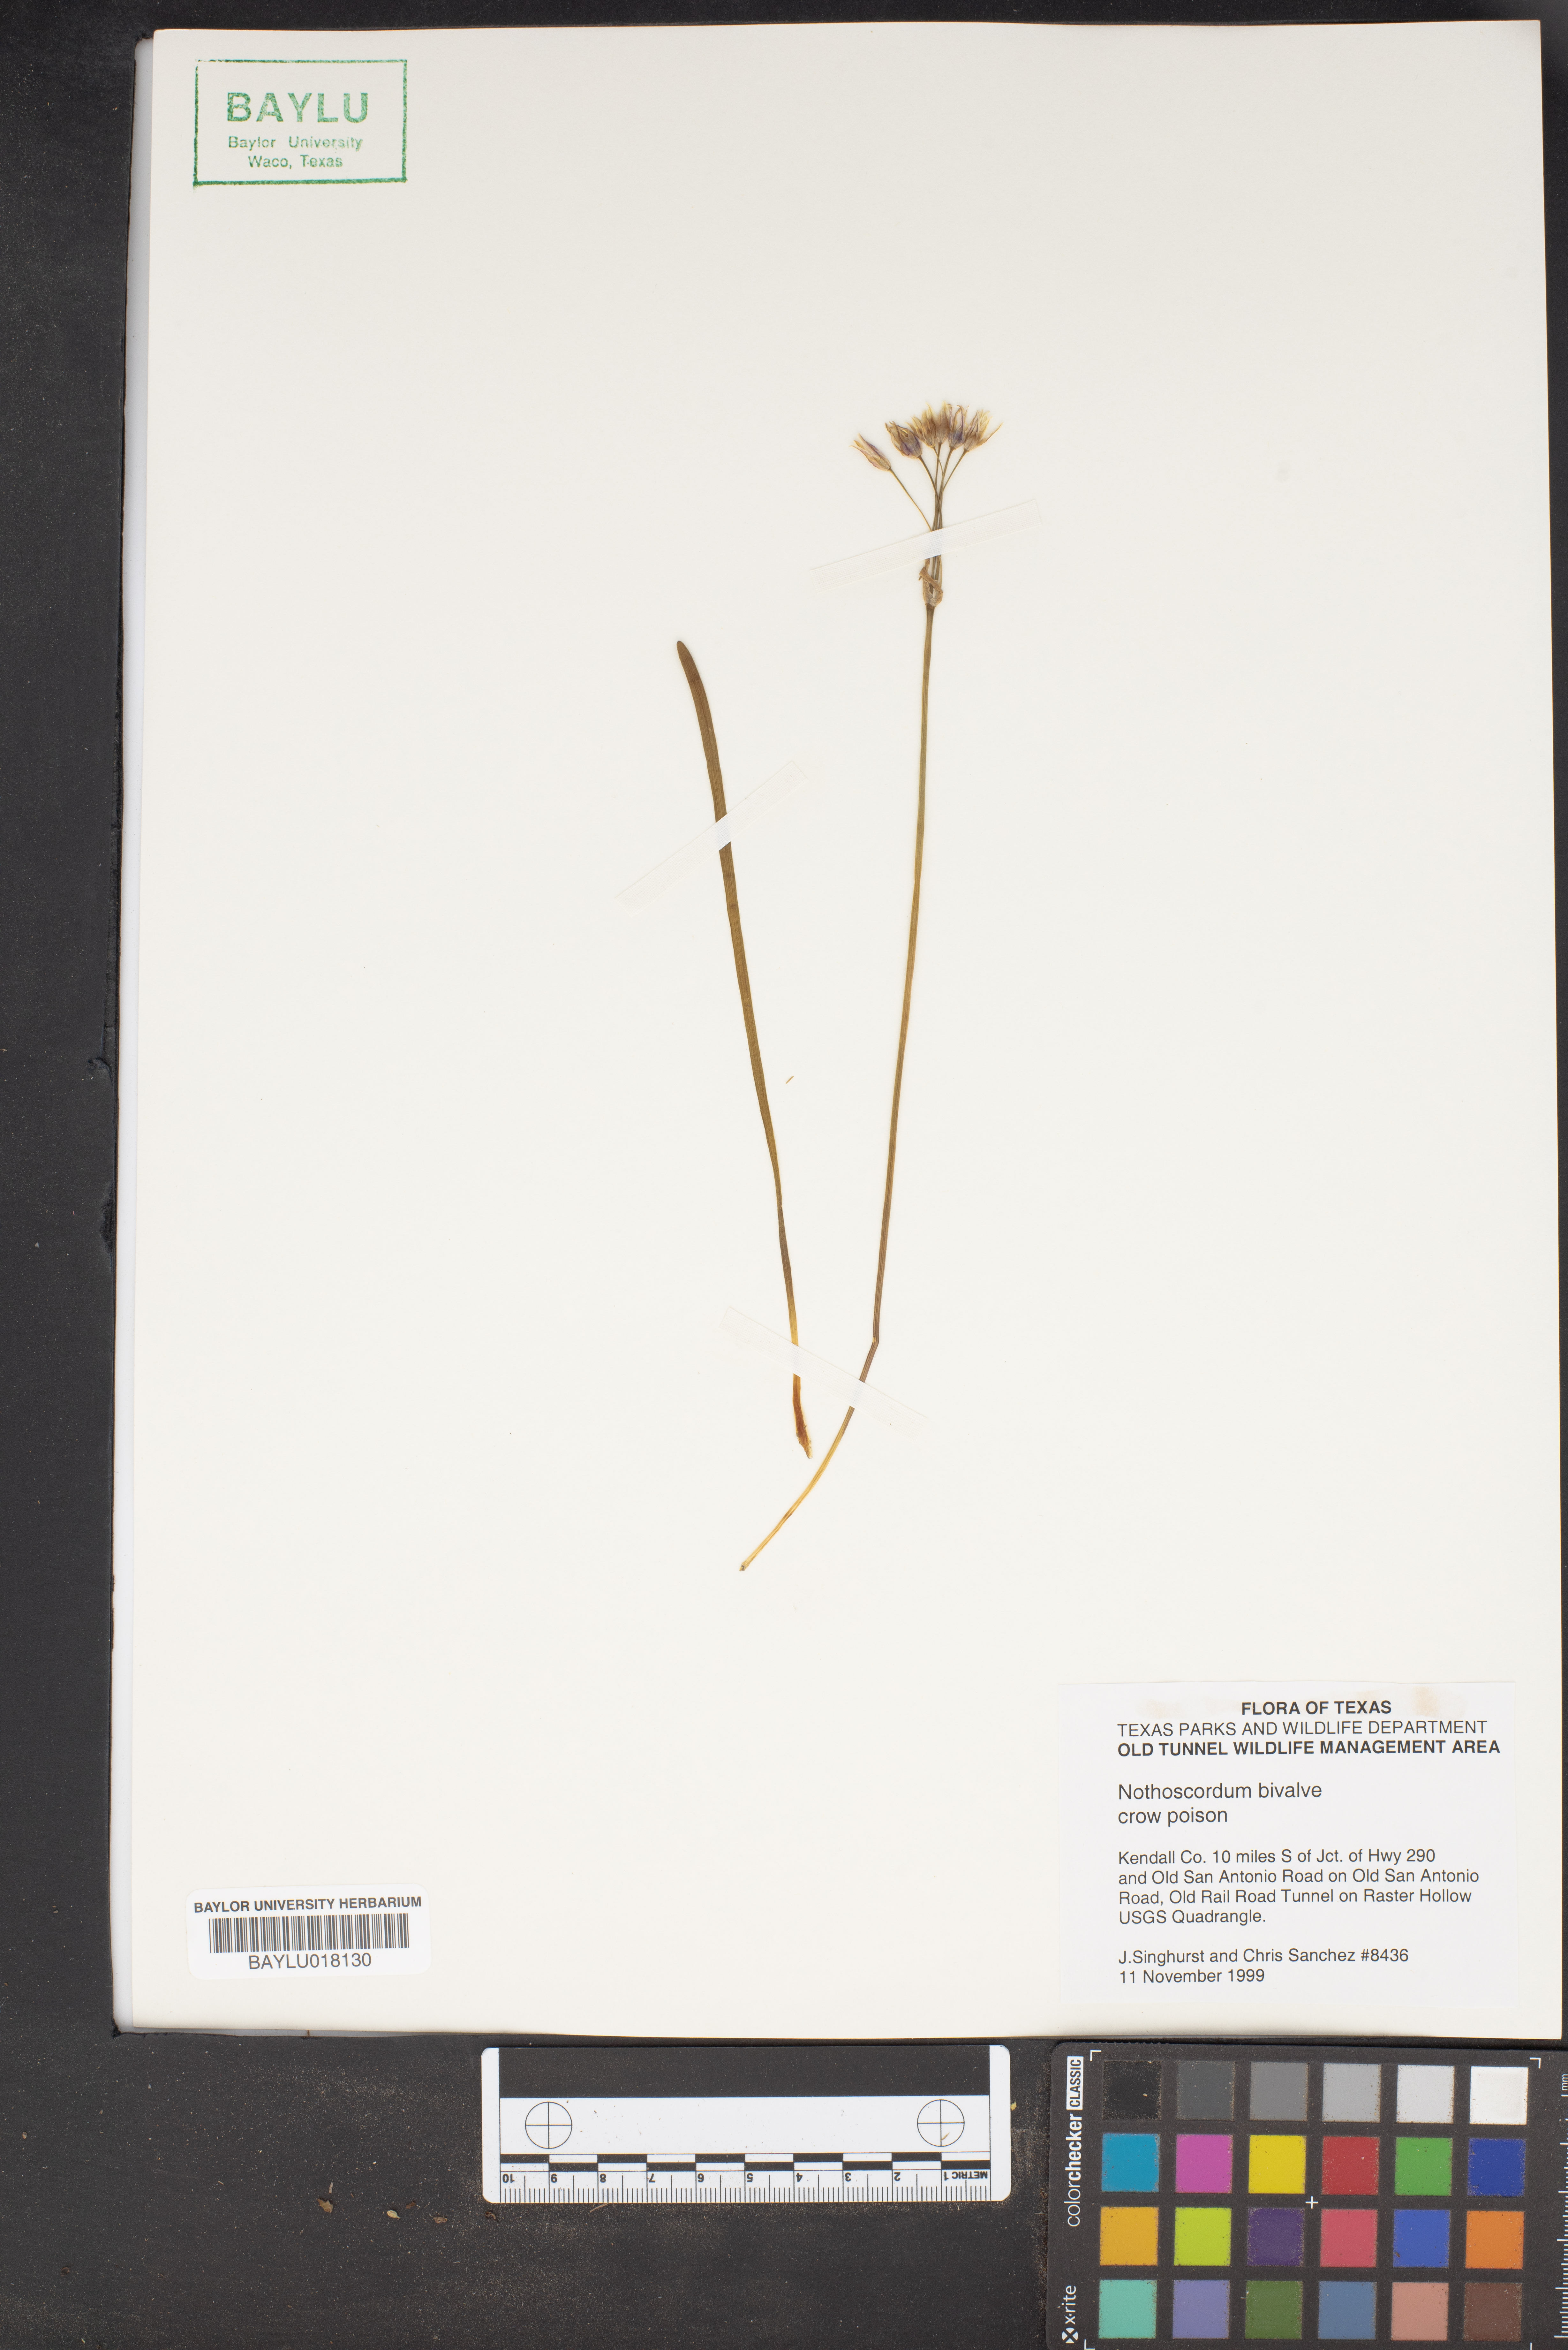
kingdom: Plantae
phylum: Tracheophyta
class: Liliopsida
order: Asparagales
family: Amaryllidaceae
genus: Nothoscordum
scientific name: Nothoscordum bivalve
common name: Crow-poison
